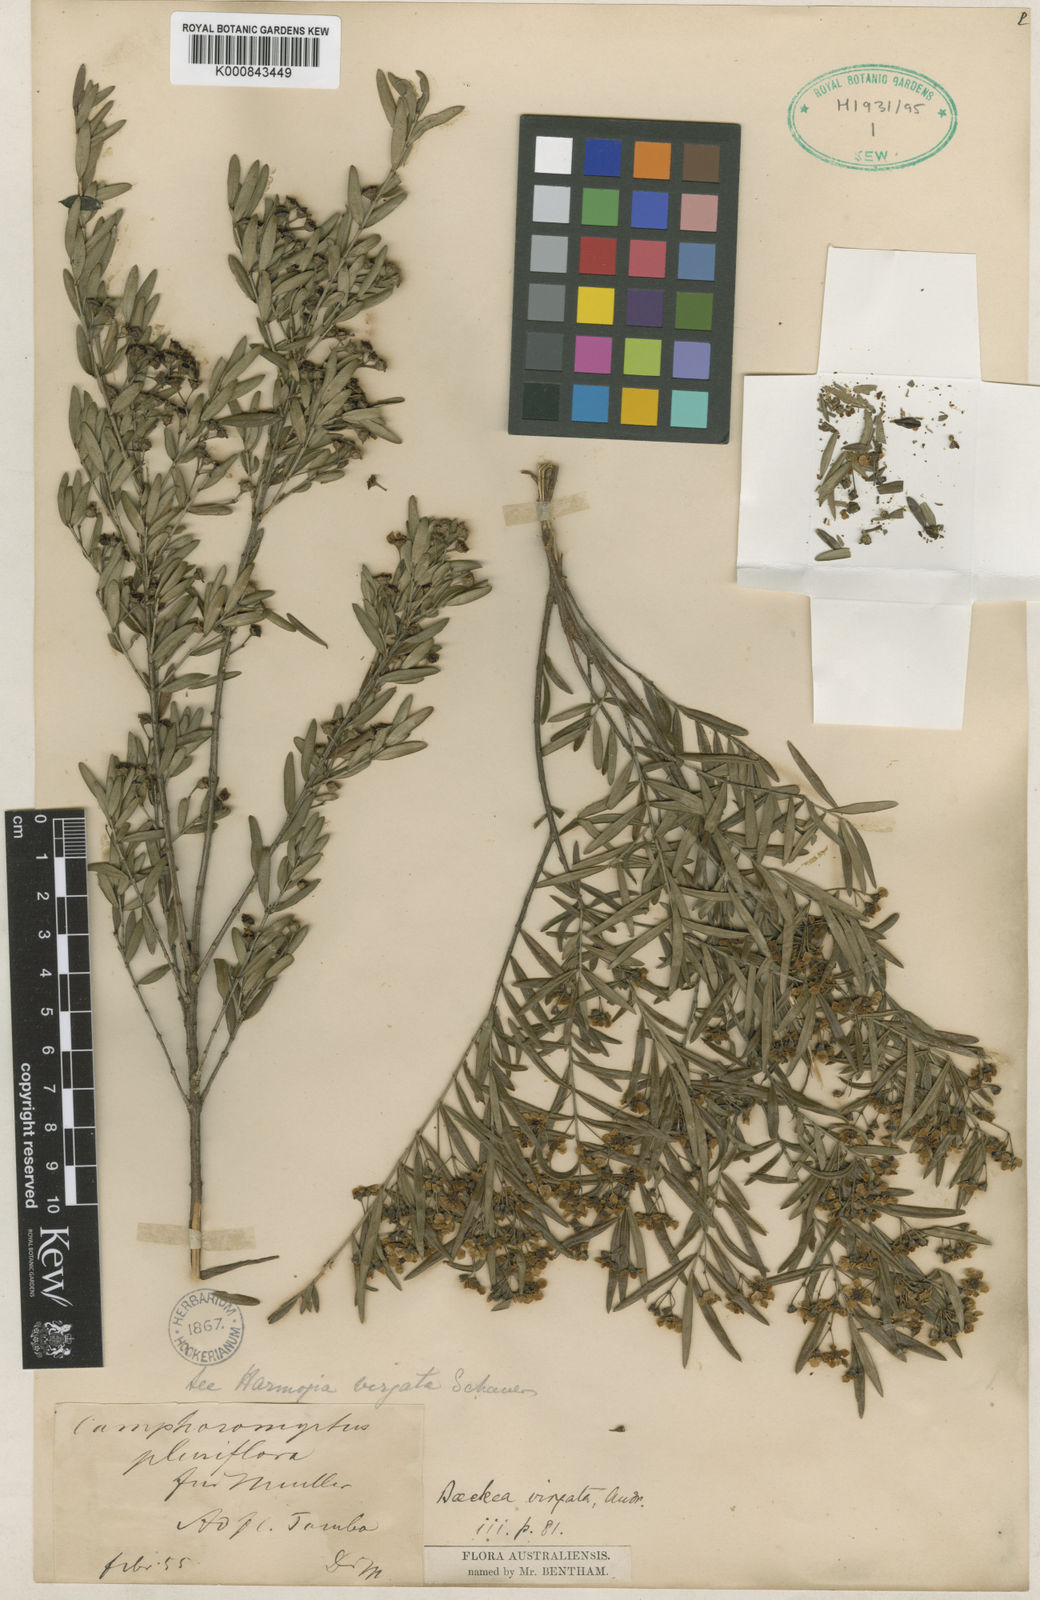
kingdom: Plantae
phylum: Tracheophyta
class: Magnoliopsida
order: Myrtales
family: Myrtaceae
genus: Babingtonia
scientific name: Babingtonia
